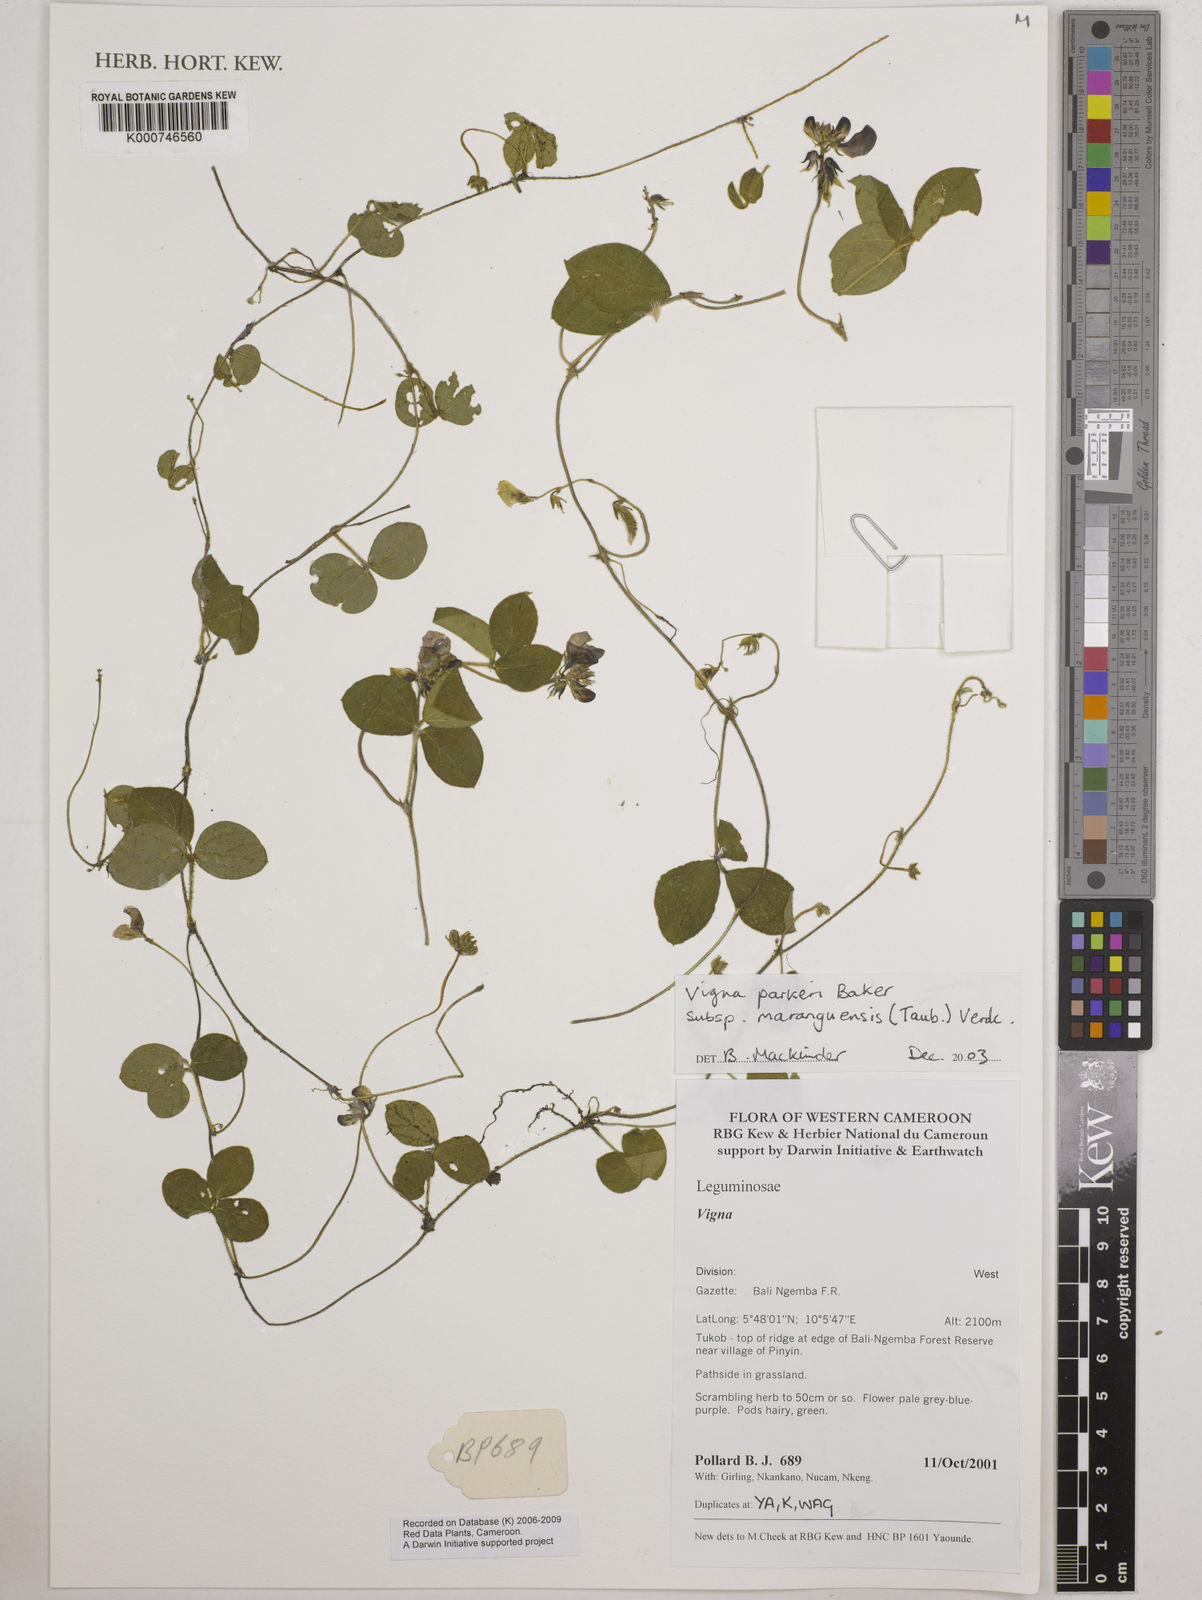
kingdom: Plantae
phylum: Tracheophyta
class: Magnoliopsida
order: Fabales
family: Fabaceae
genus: Vigna
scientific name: Vigna parkeri
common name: Creeping vigna
